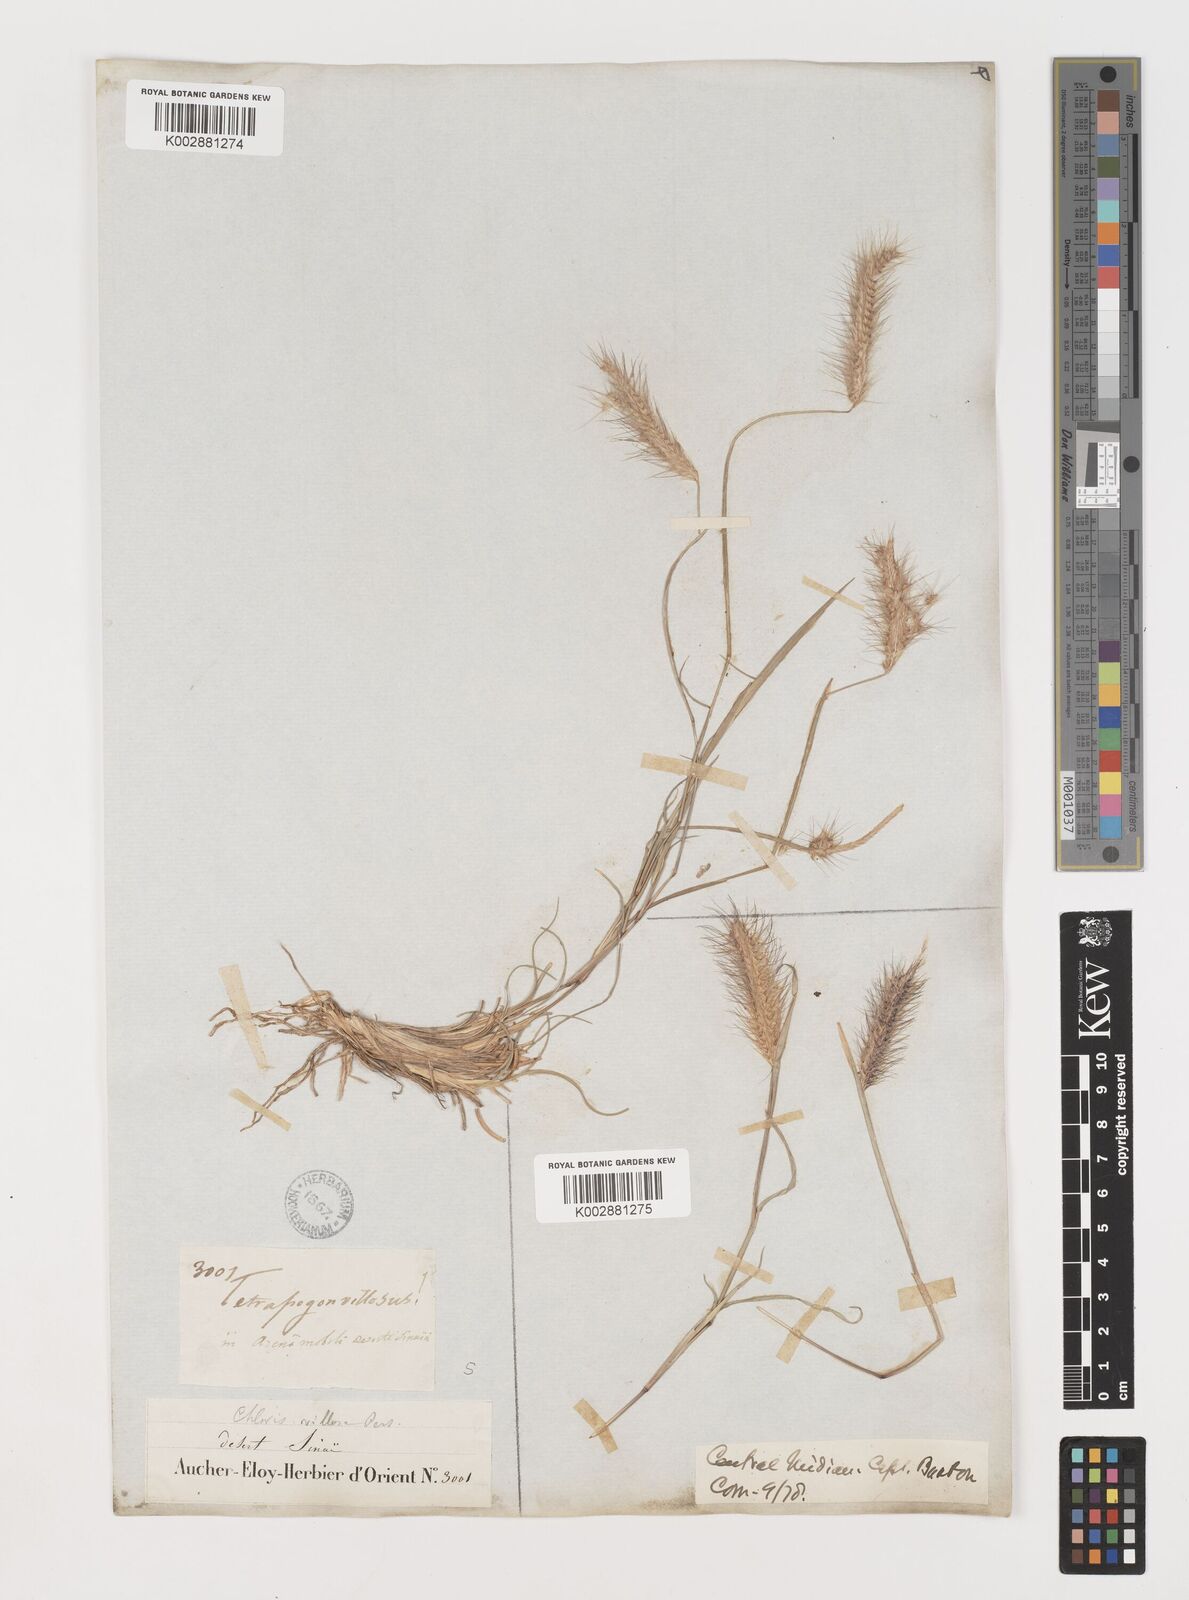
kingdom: Plantae
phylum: Tracheophyta
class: Liliopsida
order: Poales
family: Poaceae
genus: Tetrapogon
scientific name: Tetrapogon villosus
